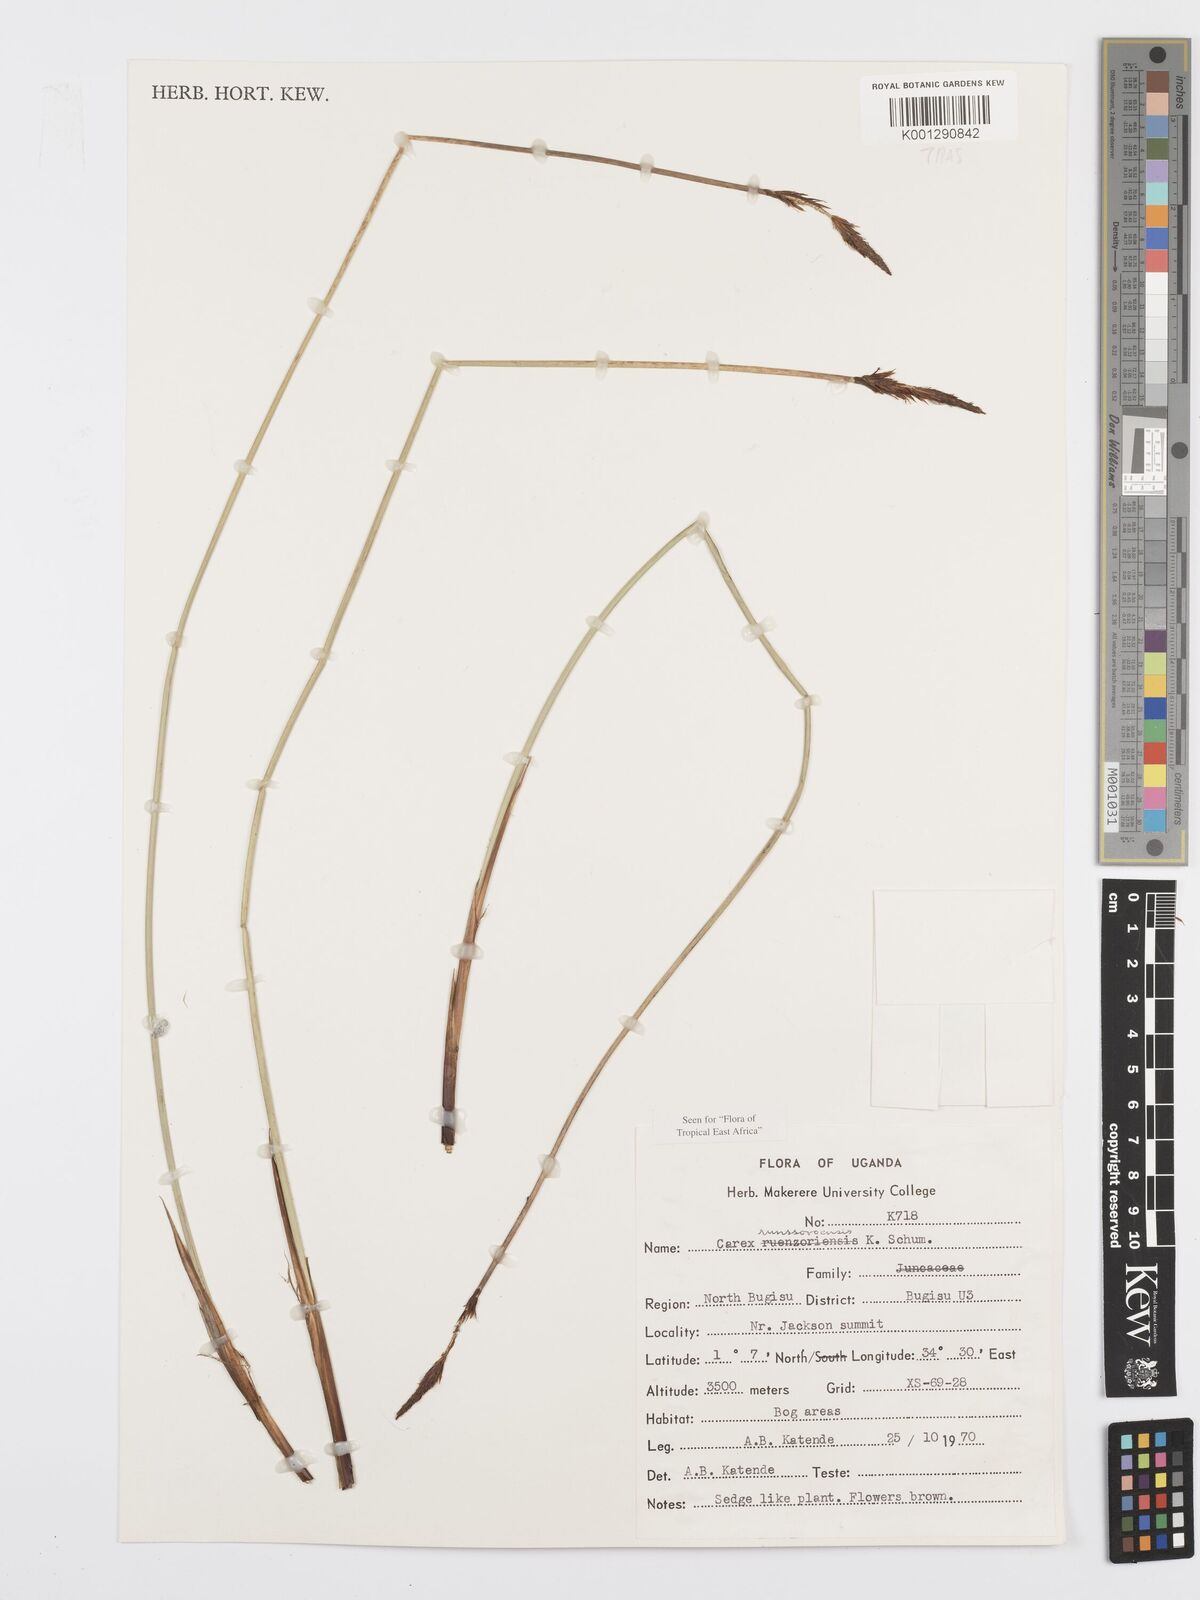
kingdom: Plantae
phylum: Tracheophyta
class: Liliopsida
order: Poales
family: Cyperaceae
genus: Carex
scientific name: Carex runssoroensis
